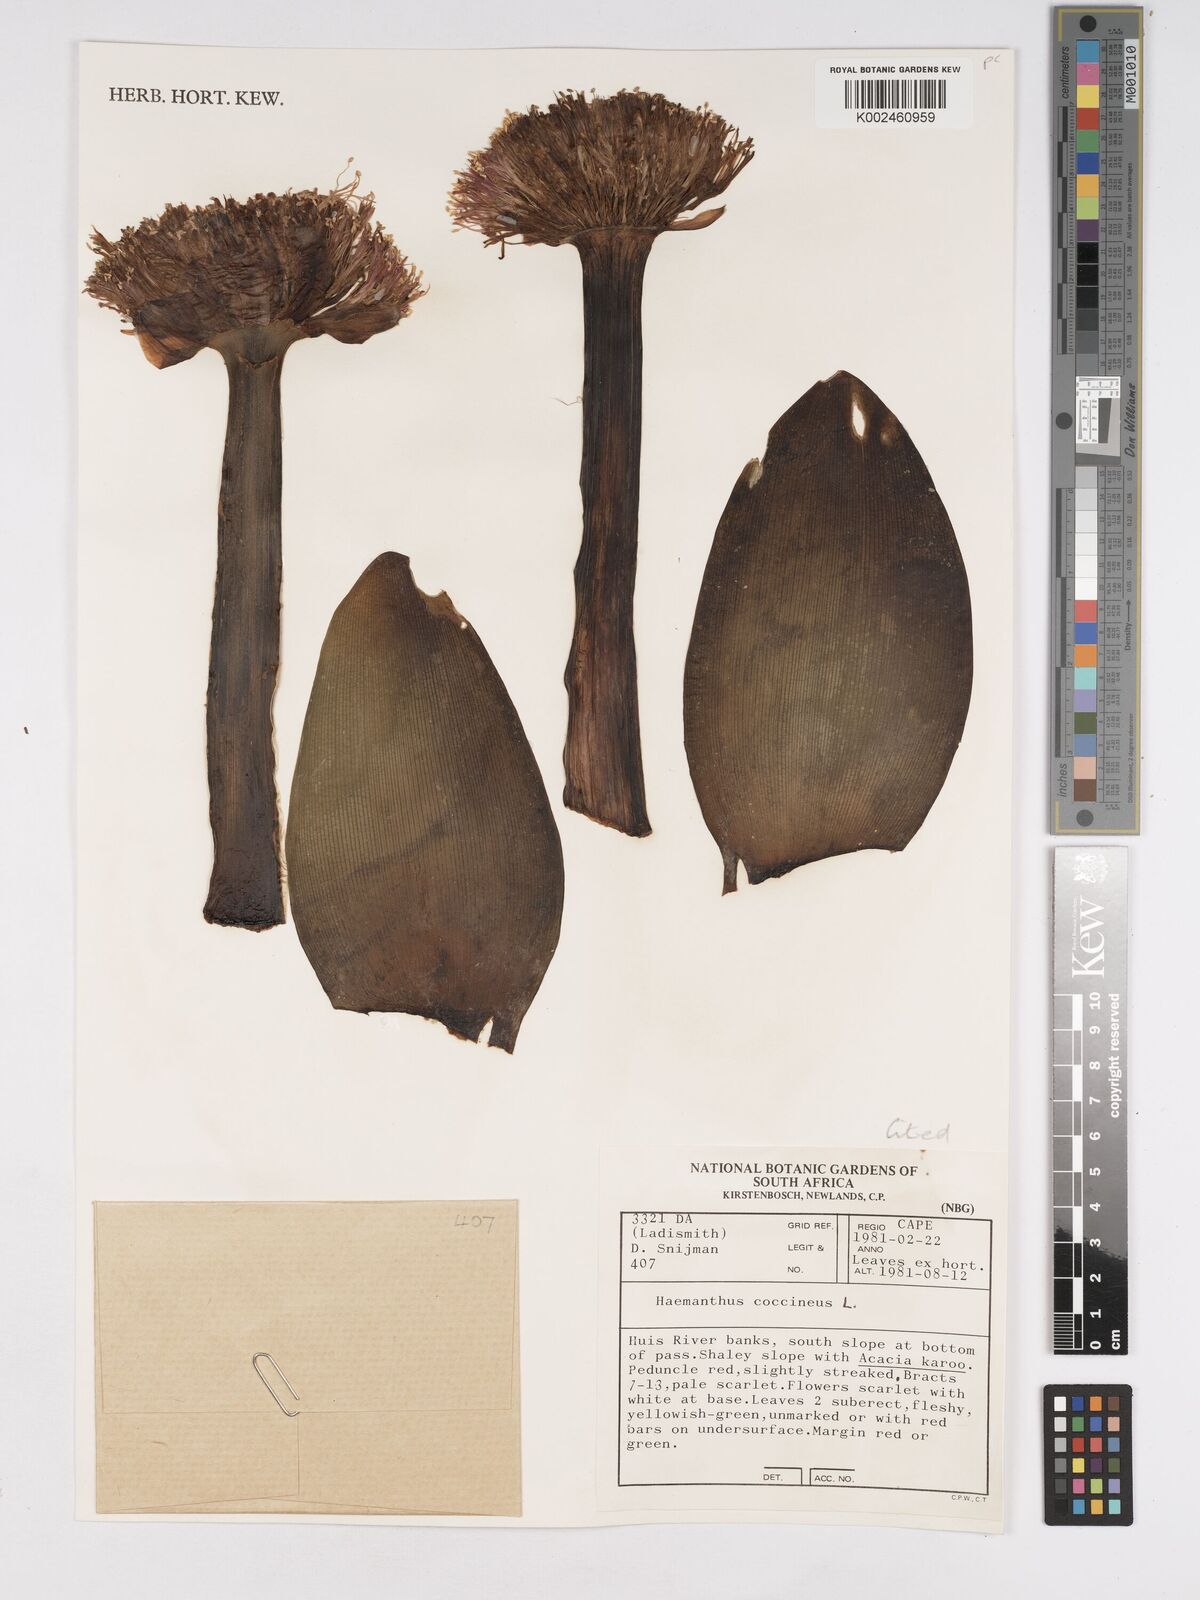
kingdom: Plantae
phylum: Tracheophyta
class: Liliopsida
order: Asparagales
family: Amaryllidaceae
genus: Haemanthus
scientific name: Haemanthus coccineus
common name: Cape-tulip
